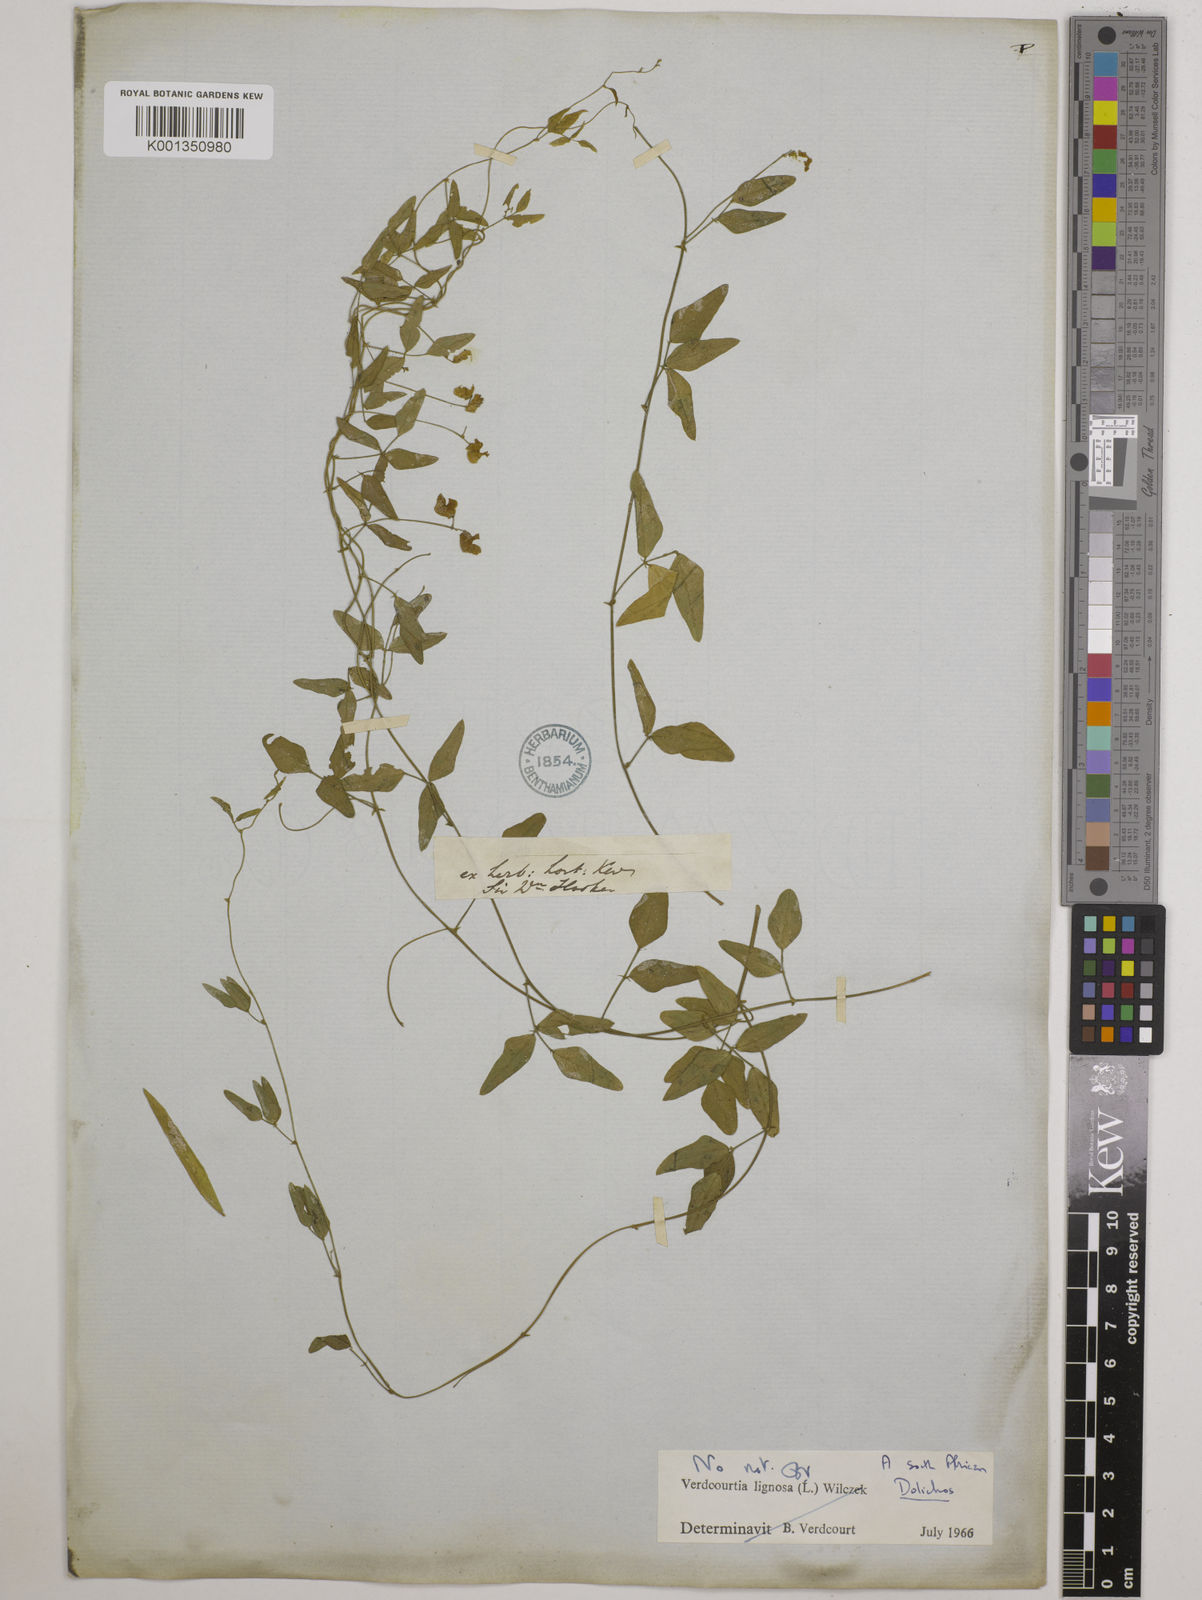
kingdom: Plantae
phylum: Tracheophyta
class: Magnoliopsida
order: Fabales
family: Fabaceae
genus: Dolichos
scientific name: Dolichos
